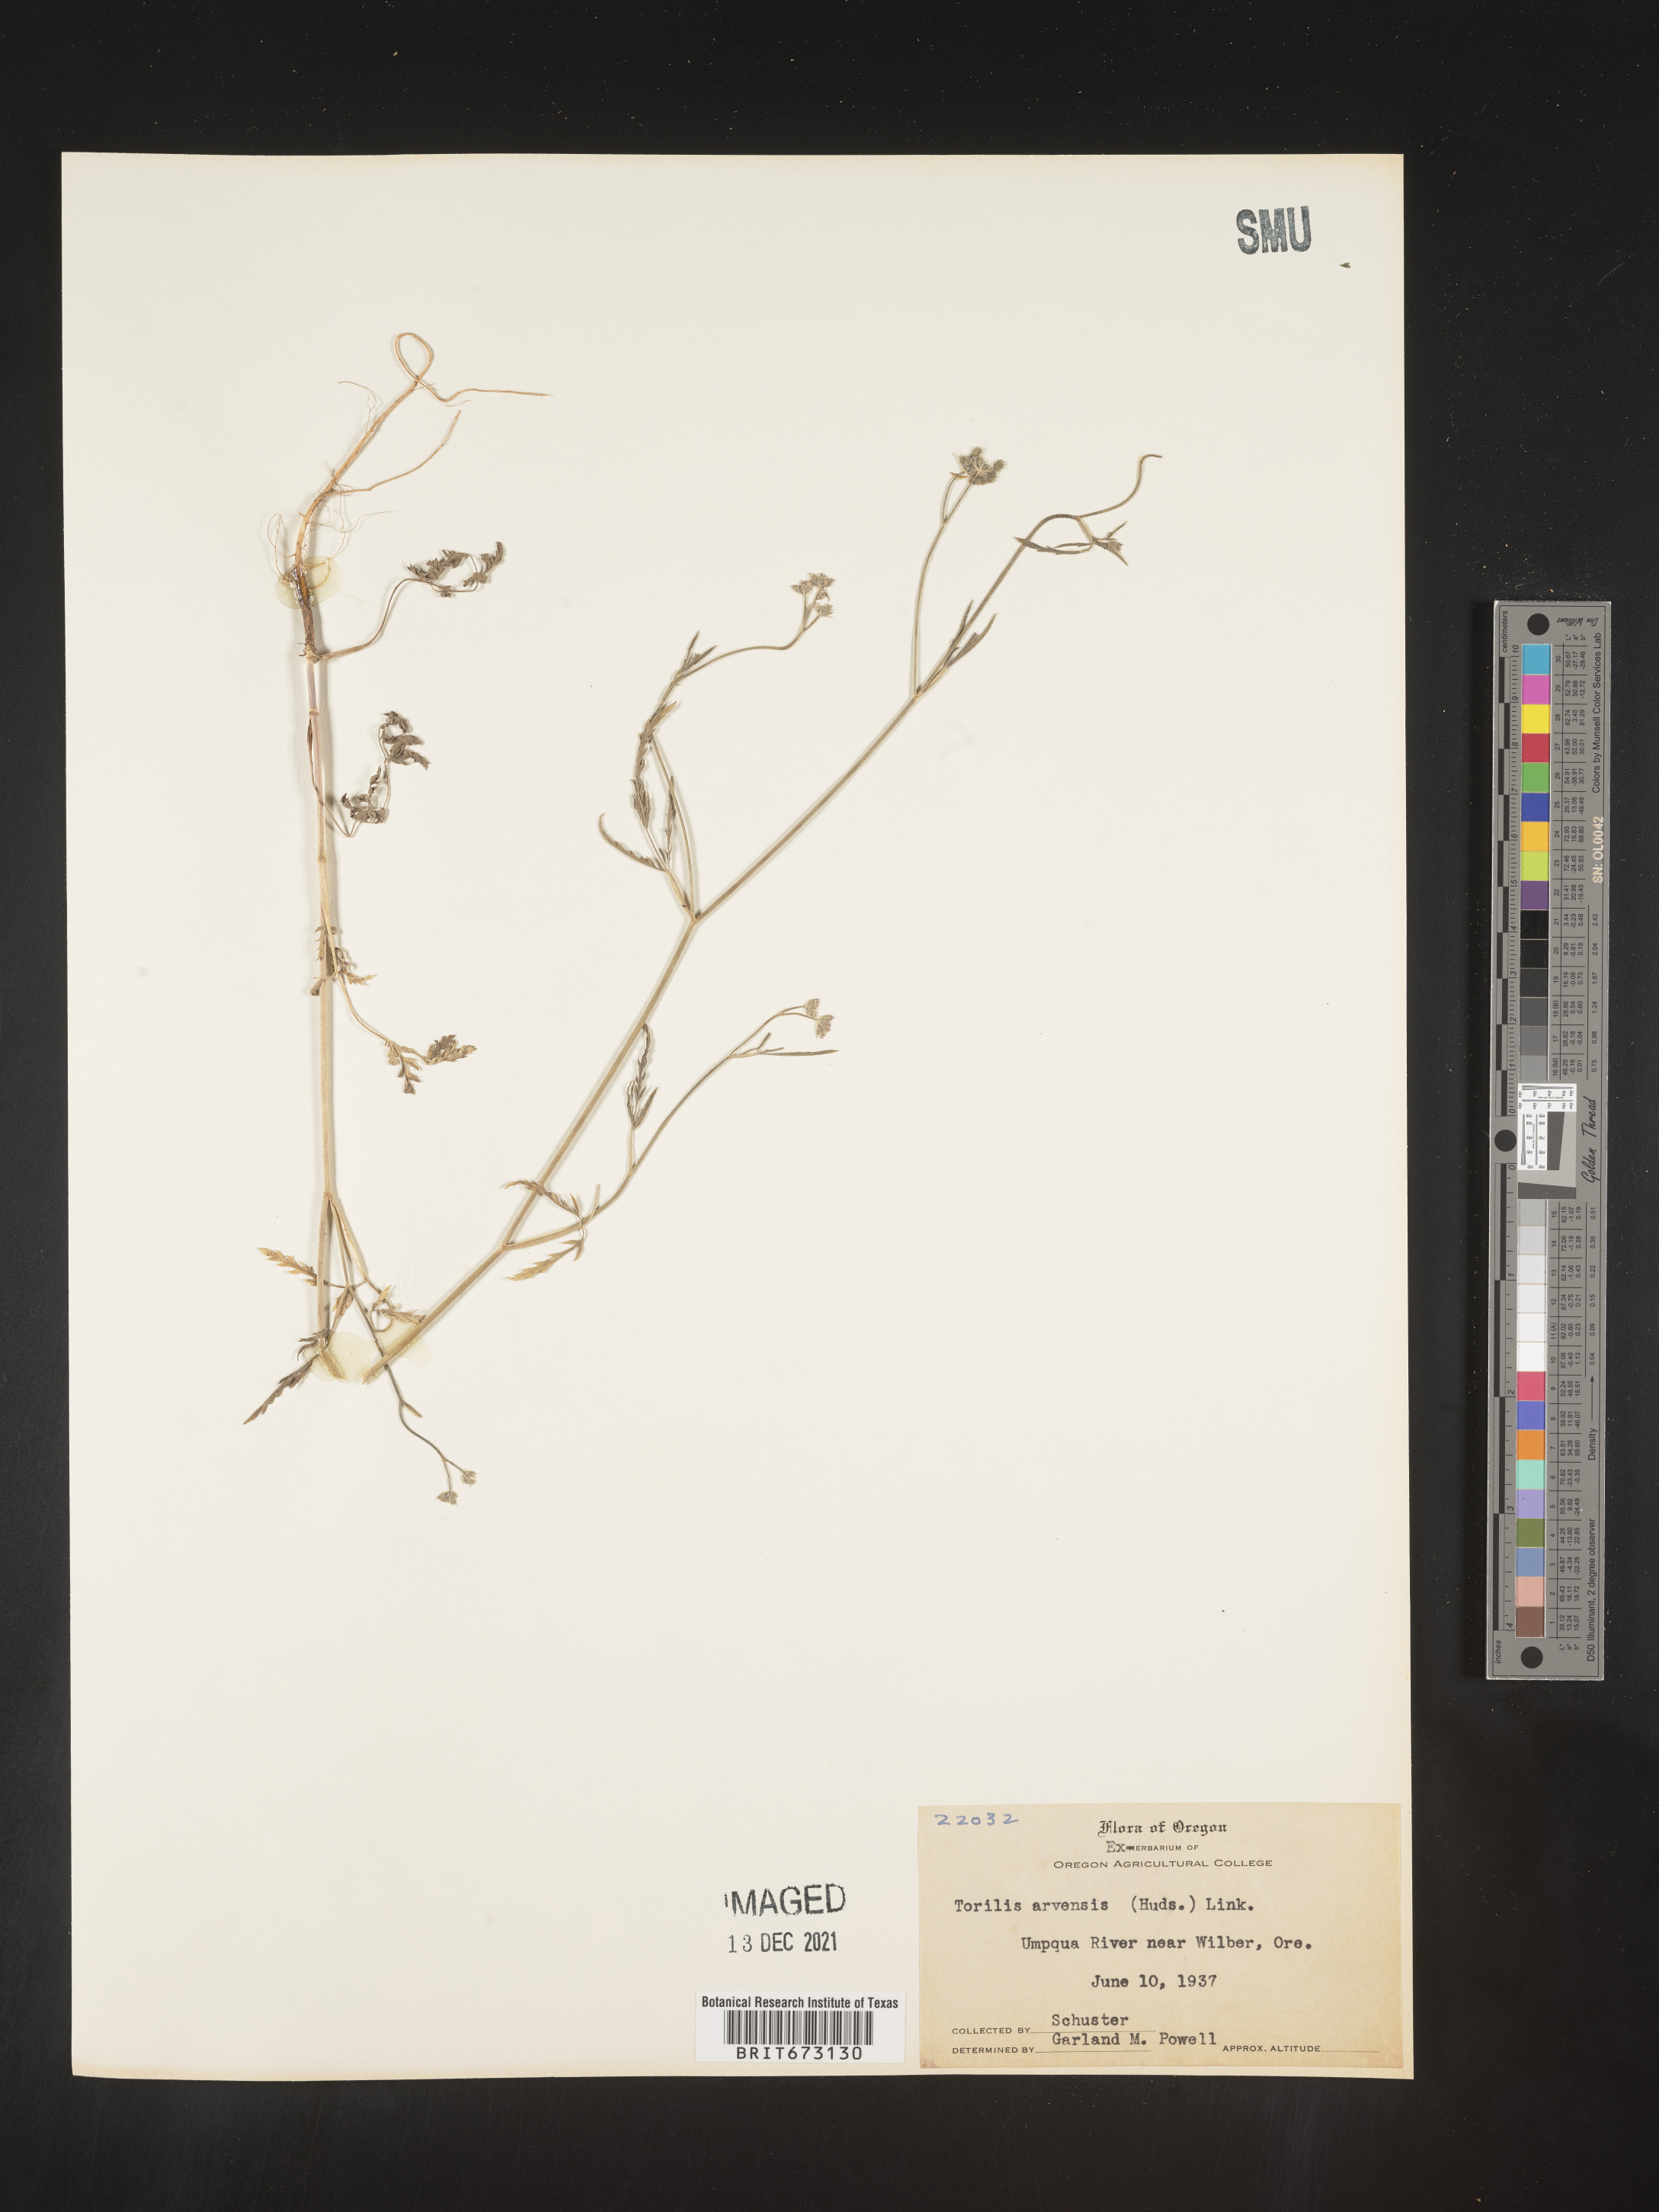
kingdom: Plantae
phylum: Tracheophyta
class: Magnoliopsida
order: Apiales
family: Apiaceae
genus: Torilis
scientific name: Torilis arvensis
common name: Spreading hedge-parsley
